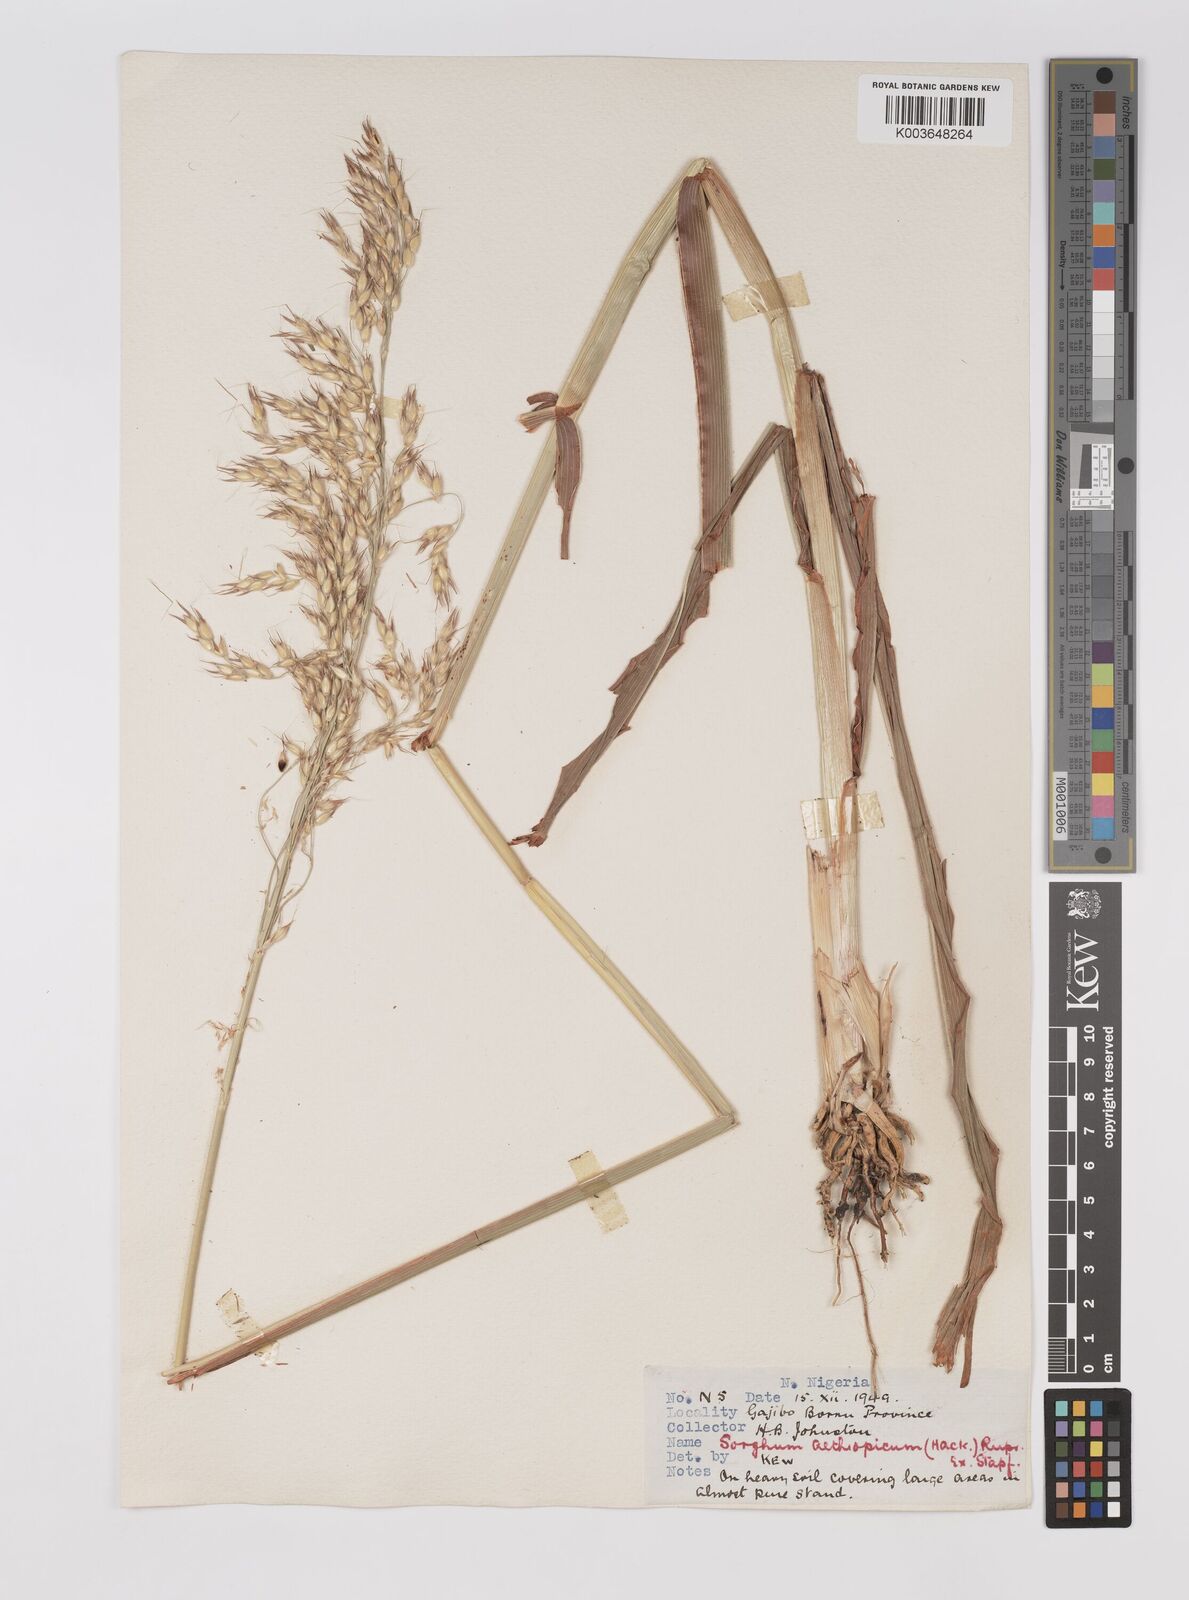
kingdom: Plantae
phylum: Tracheophyta
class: Liliopsida
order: Poales
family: Poaceae
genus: Sorghum
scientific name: Sorghum arundinaceum
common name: Sorghum
